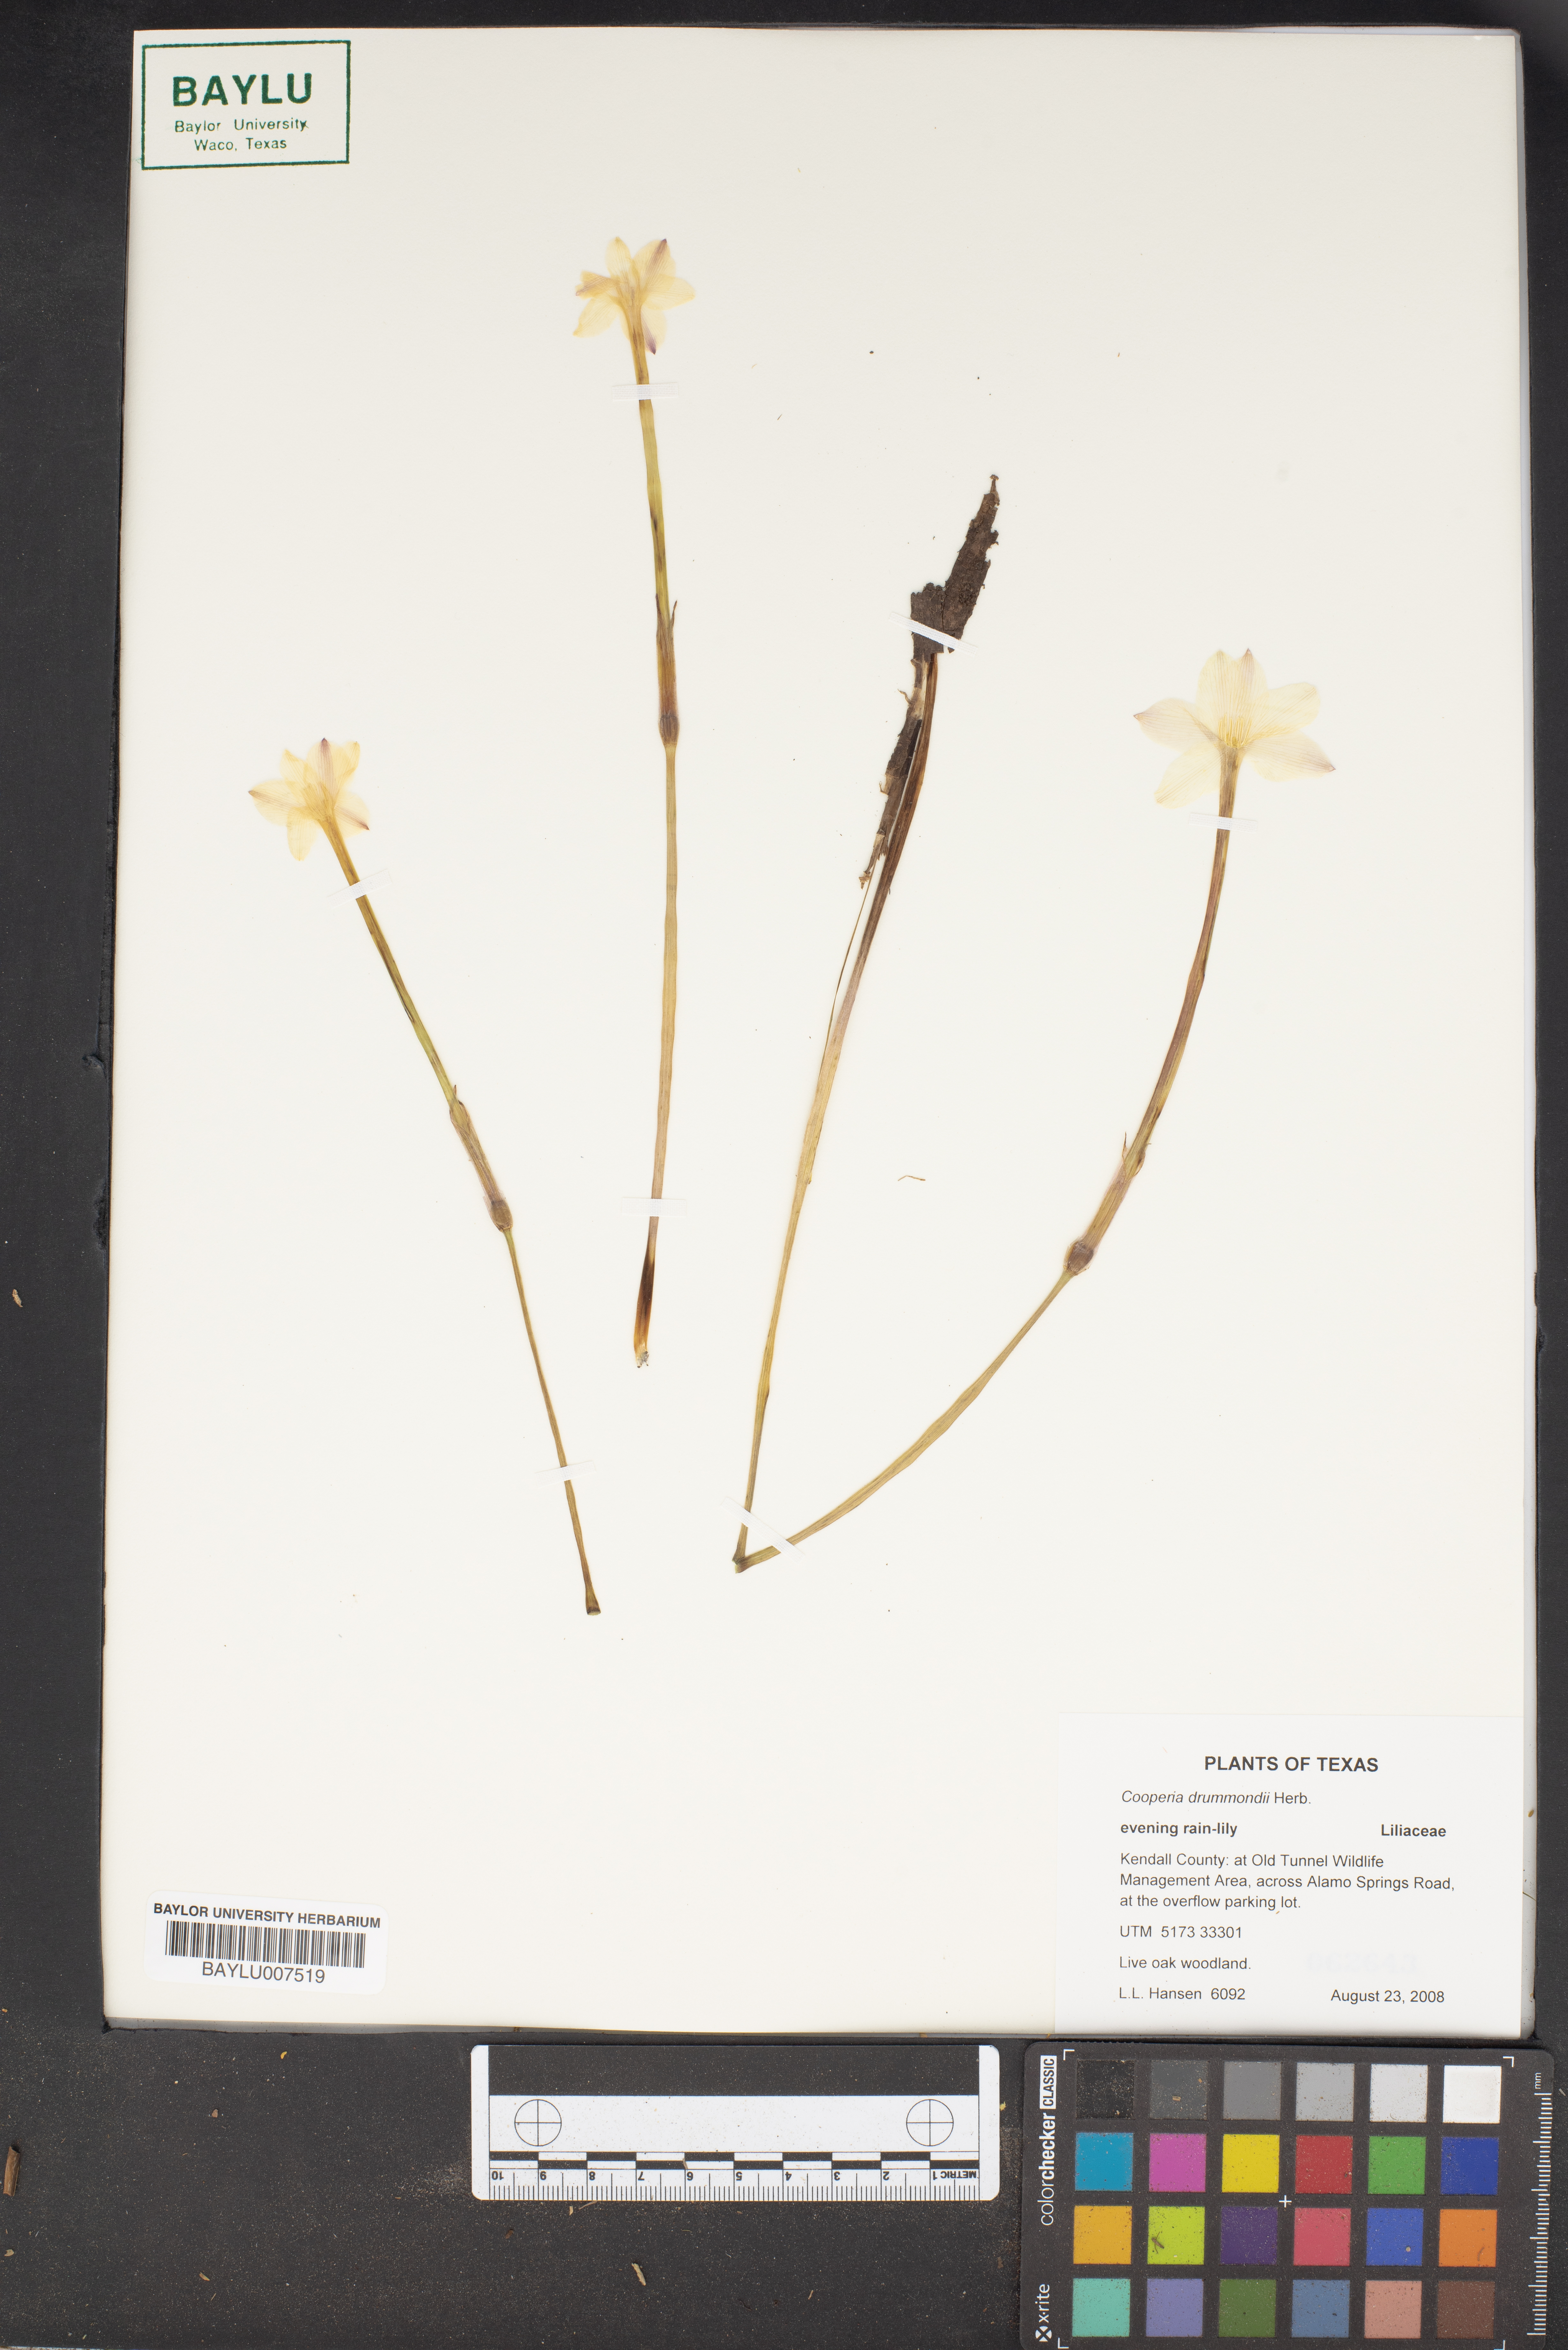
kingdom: Plantae
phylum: Tracheophyta
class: Liliopsida
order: Asparagales
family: Amaryllidaceae
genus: Zephyranthes
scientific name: Zephyranthes chlorosolen
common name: Evening rain-lily
